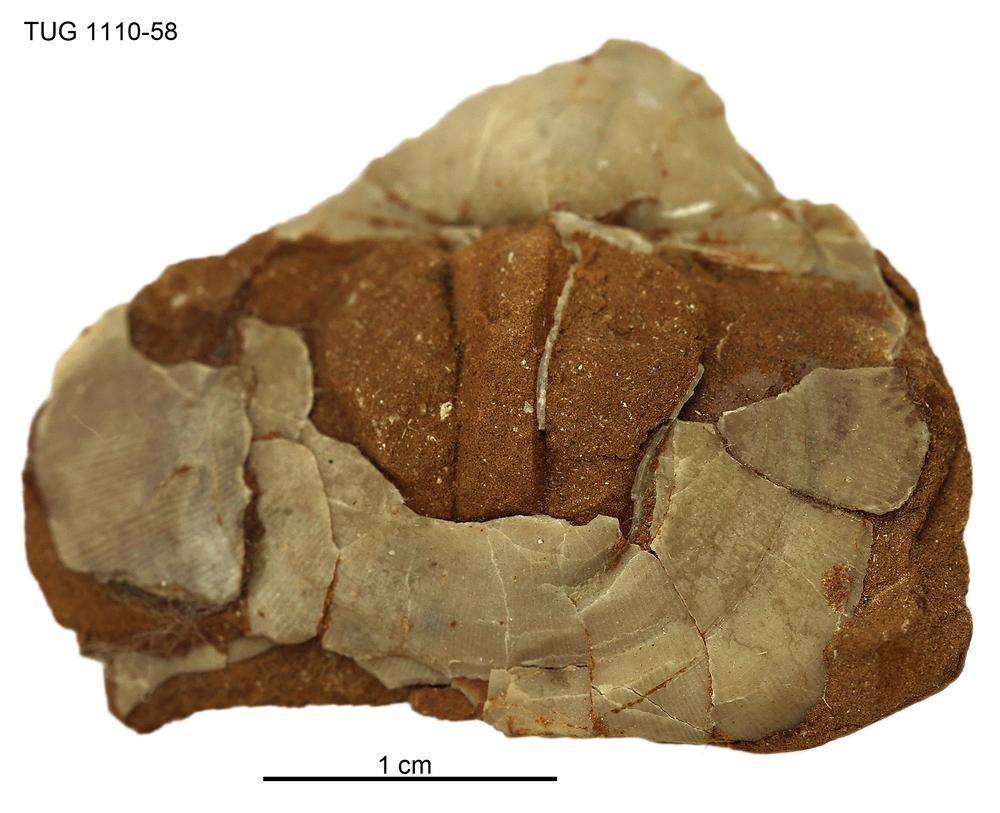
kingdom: Animalia
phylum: Brachiopoda
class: Rhynchonellata
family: Porambonitidae
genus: Porambonites
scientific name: Porambonites
